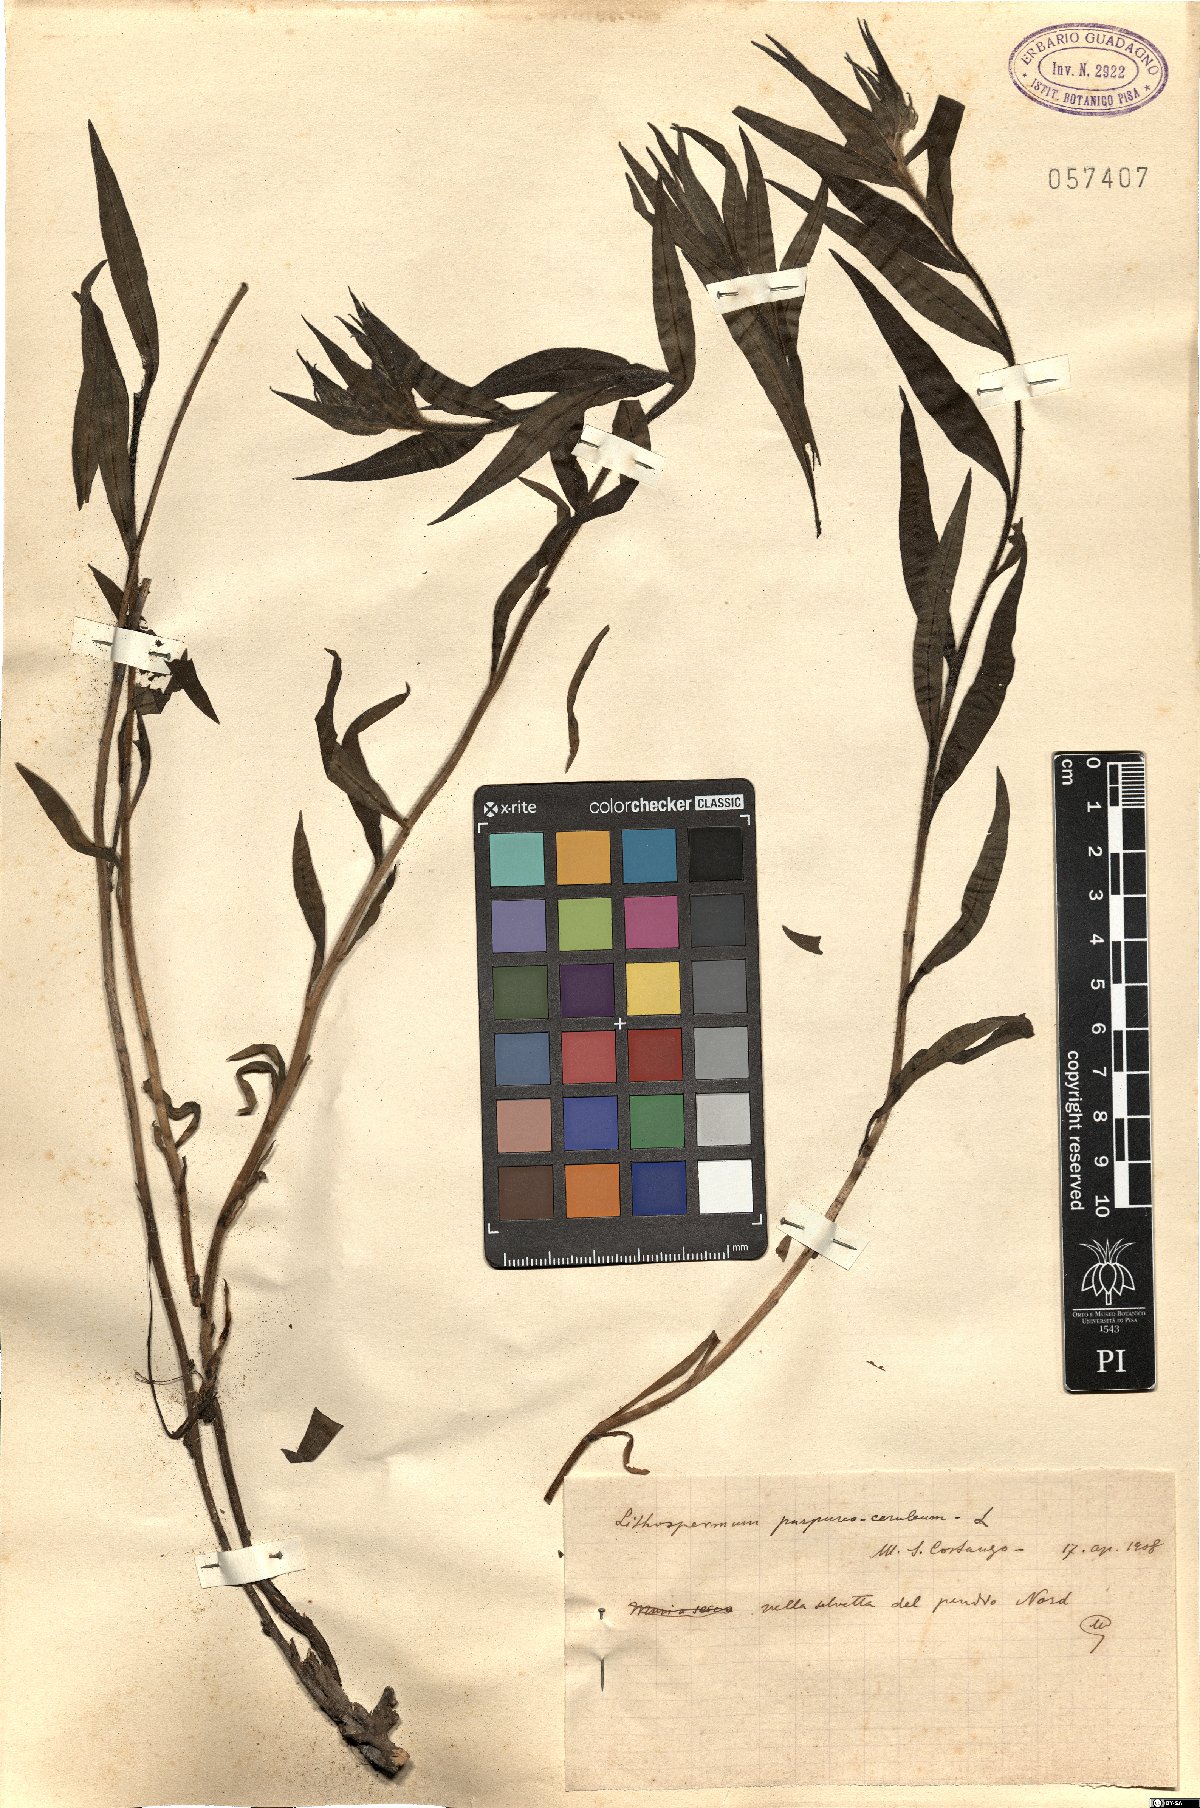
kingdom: Plantae
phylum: Tracheophyta
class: Magnoliopsida
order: Boraginales
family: Boraginaceae
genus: Aegonychon
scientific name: Aegonychon purpurocaeruleum
